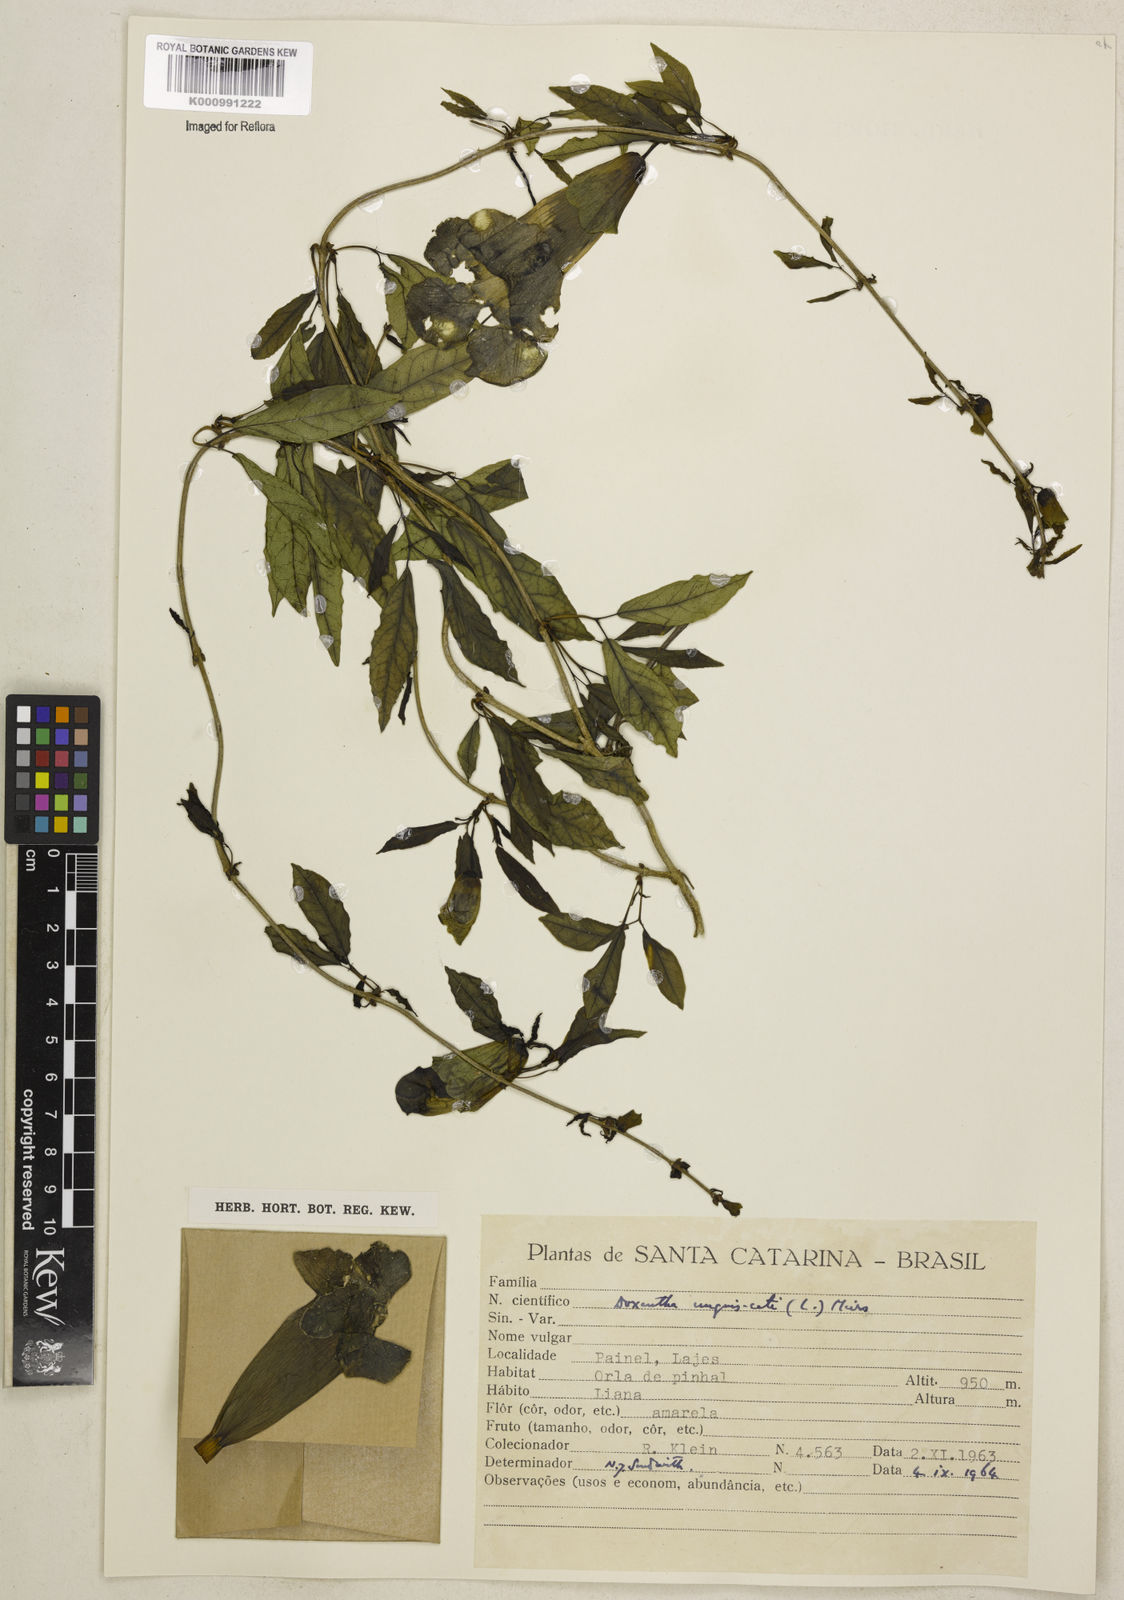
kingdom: Plantae
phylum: Tracheophyta
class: Magnoliopsida
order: Lamiales
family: Bignoniaceae
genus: Dolichandra
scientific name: Dolichandra unguis-cati
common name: Catclaw vine
